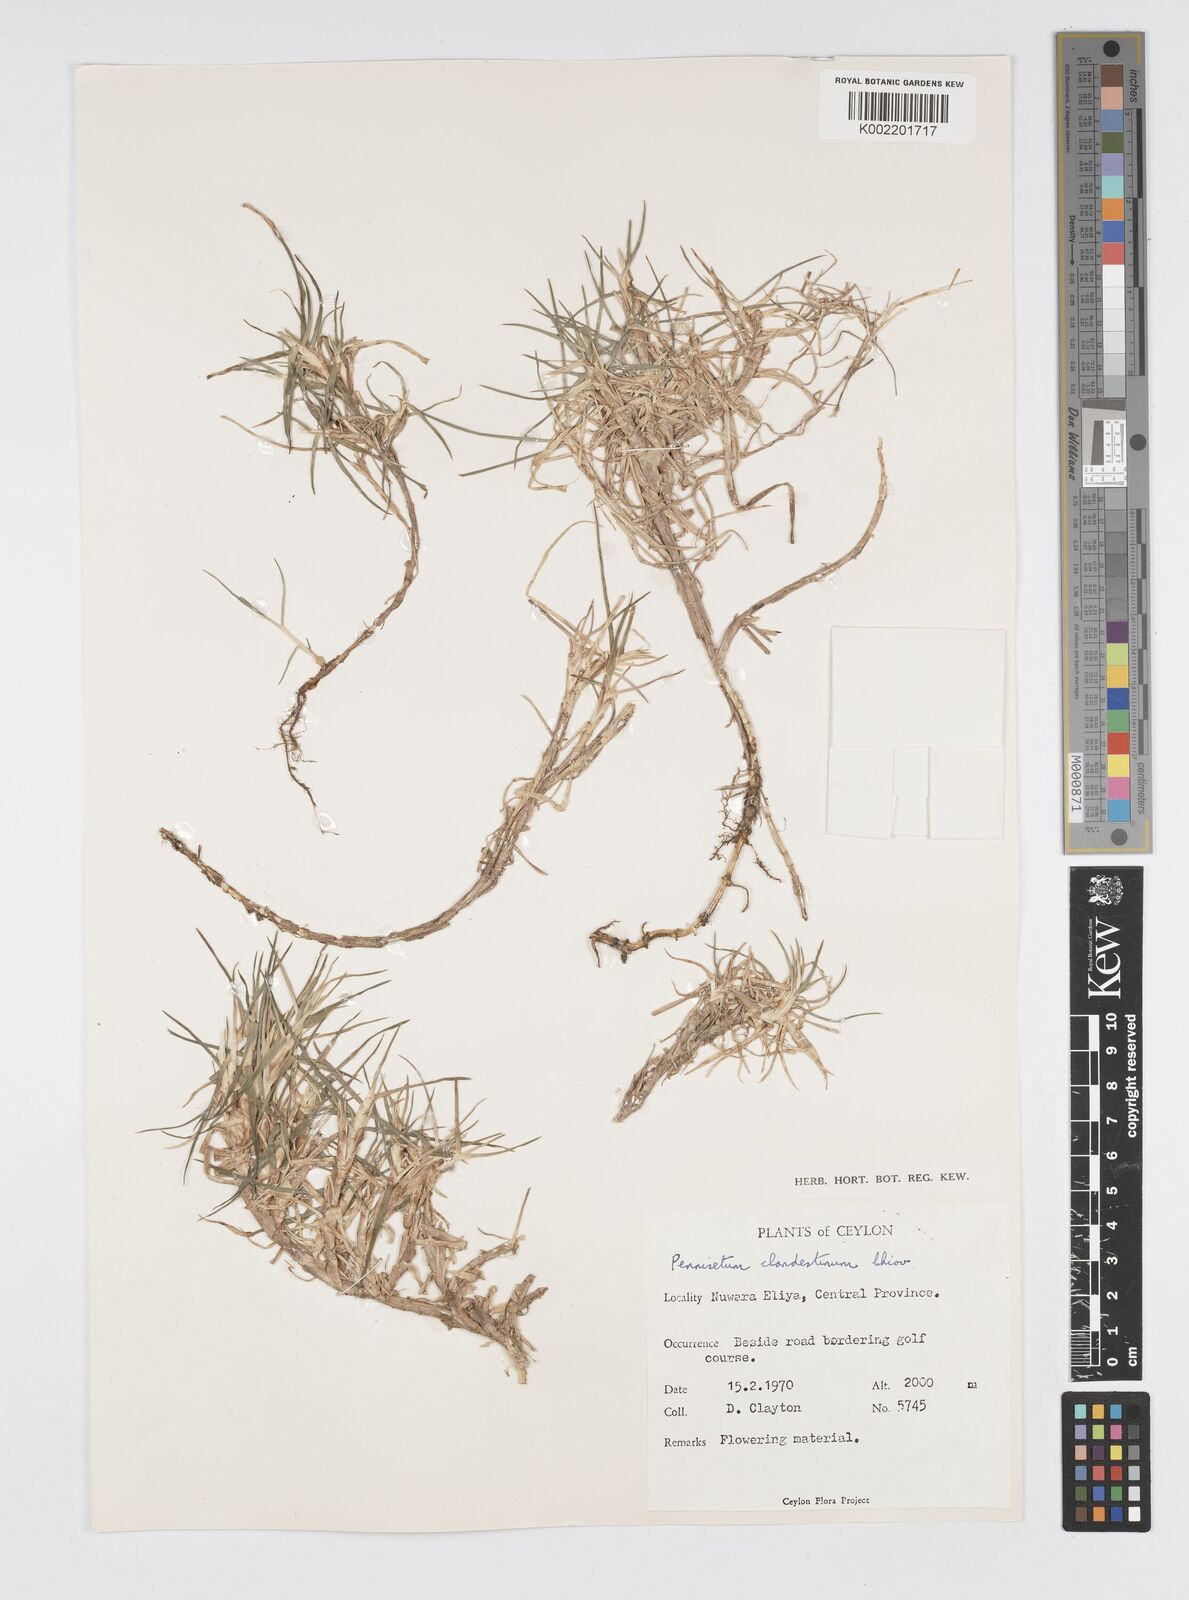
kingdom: Plantae
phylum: Tracheophyta
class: Liliopsida
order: Poales
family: Poaceae
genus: Cenchrus
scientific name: Cenchrus clandestinus
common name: Kikuyugrass
